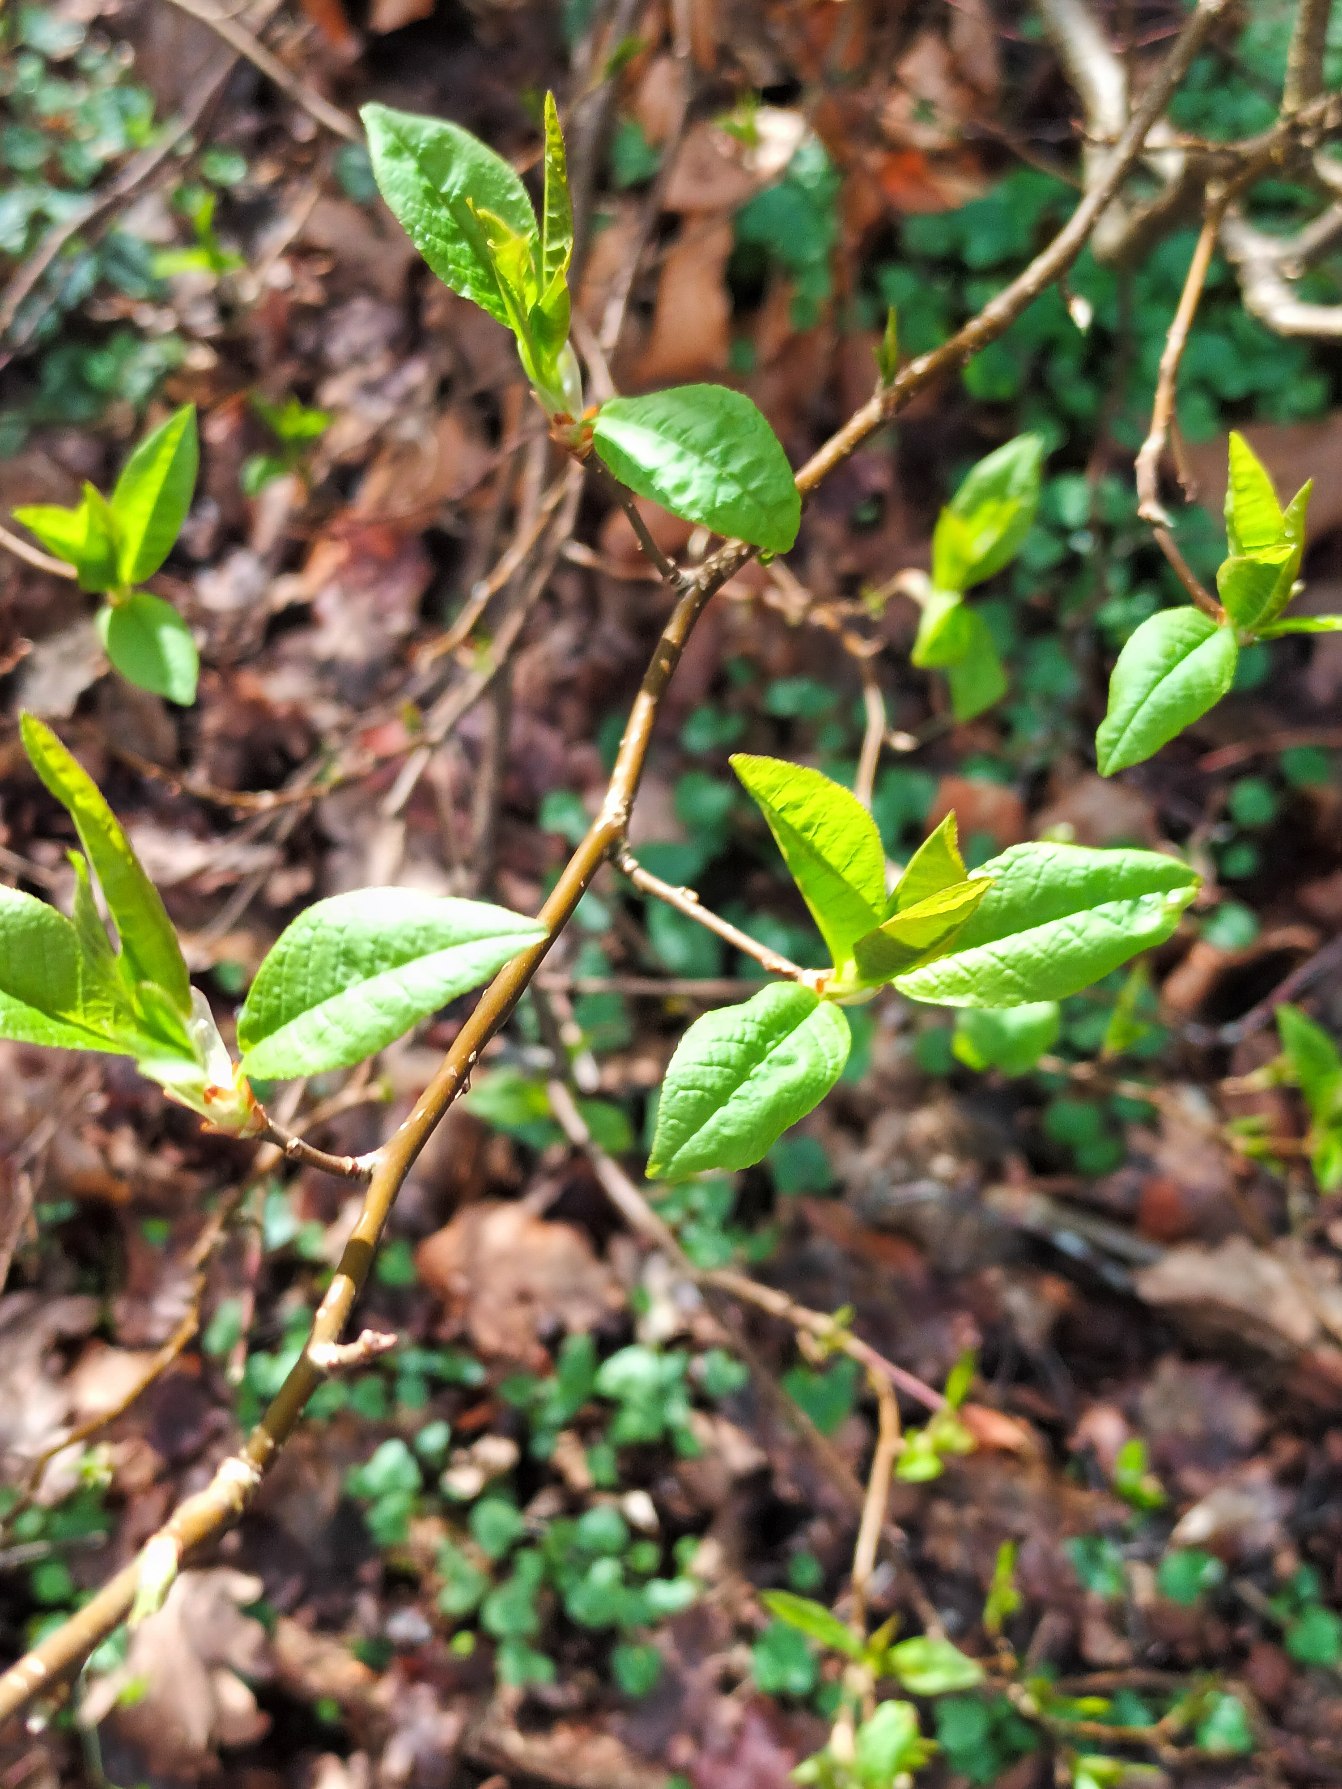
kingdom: Plantae
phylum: Tracheophyta
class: Magnoliopsida
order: Rosales
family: Rosaceae
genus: Prunus
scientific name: Prunus padus
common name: Almindelig hæg
